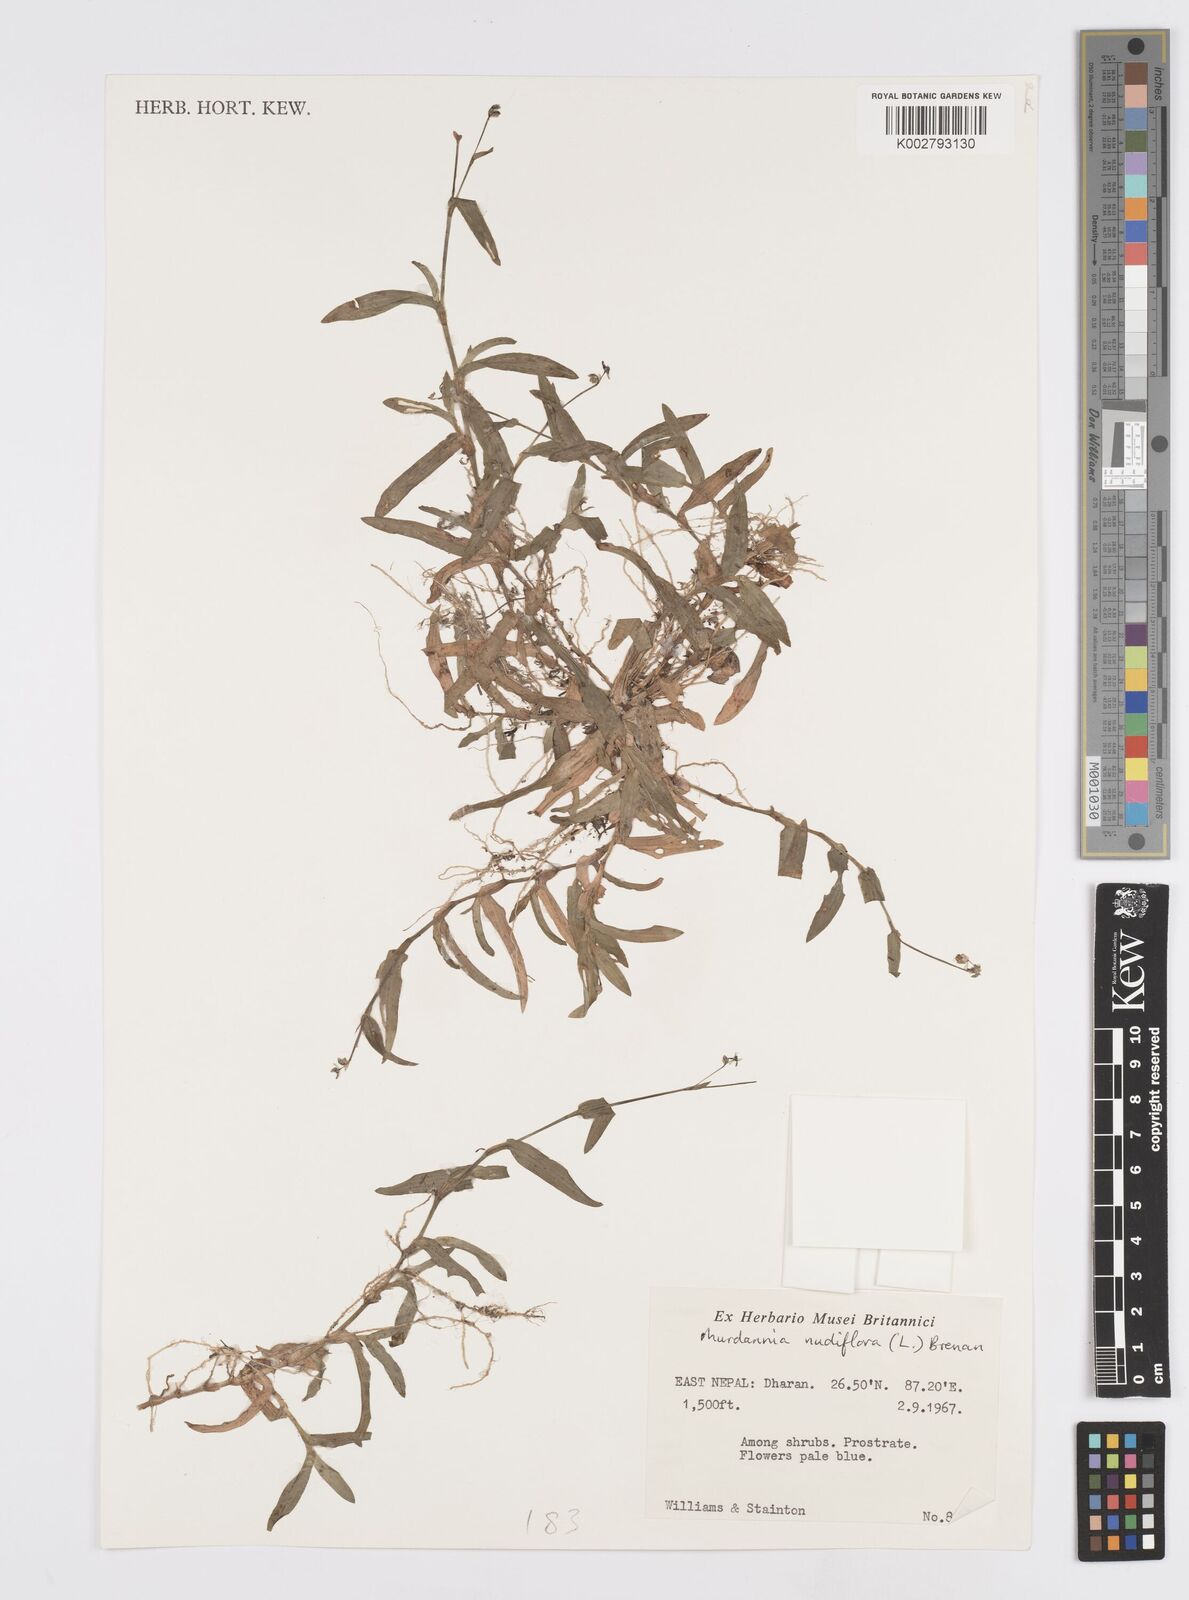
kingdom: Plantae
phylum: Tracheophyta
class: Liliopsida
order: Commelinales
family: Commelinaceae
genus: Murdannia
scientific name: Murdannia nudiflora
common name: Nakedstem dewflower
